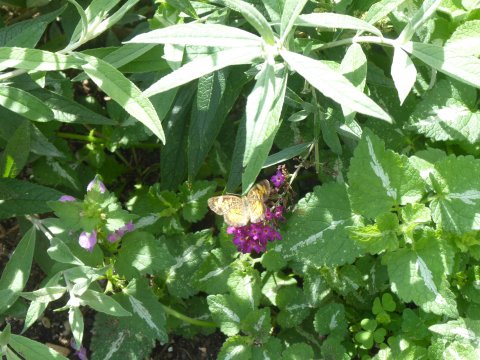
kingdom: Animalia
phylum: Arthropoda
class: Insecta
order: Lepidoptera
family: Nymphalidae
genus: Phyciodes
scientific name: Phyciodes
